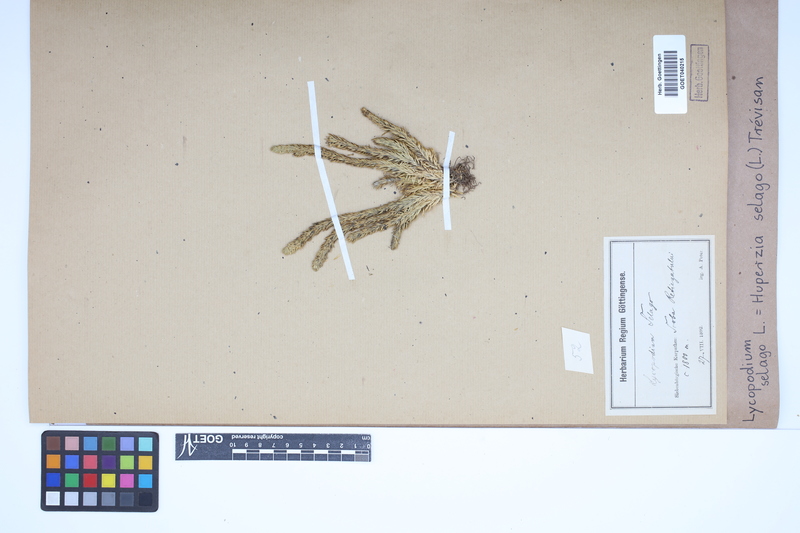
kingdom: Plantae
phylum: Tracheophyta
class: Lycopodiopsida
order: Lycopodiales
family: Lycopodiaceae
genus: Huperzia
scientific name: Huperzia selago
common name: Northern firmoss
